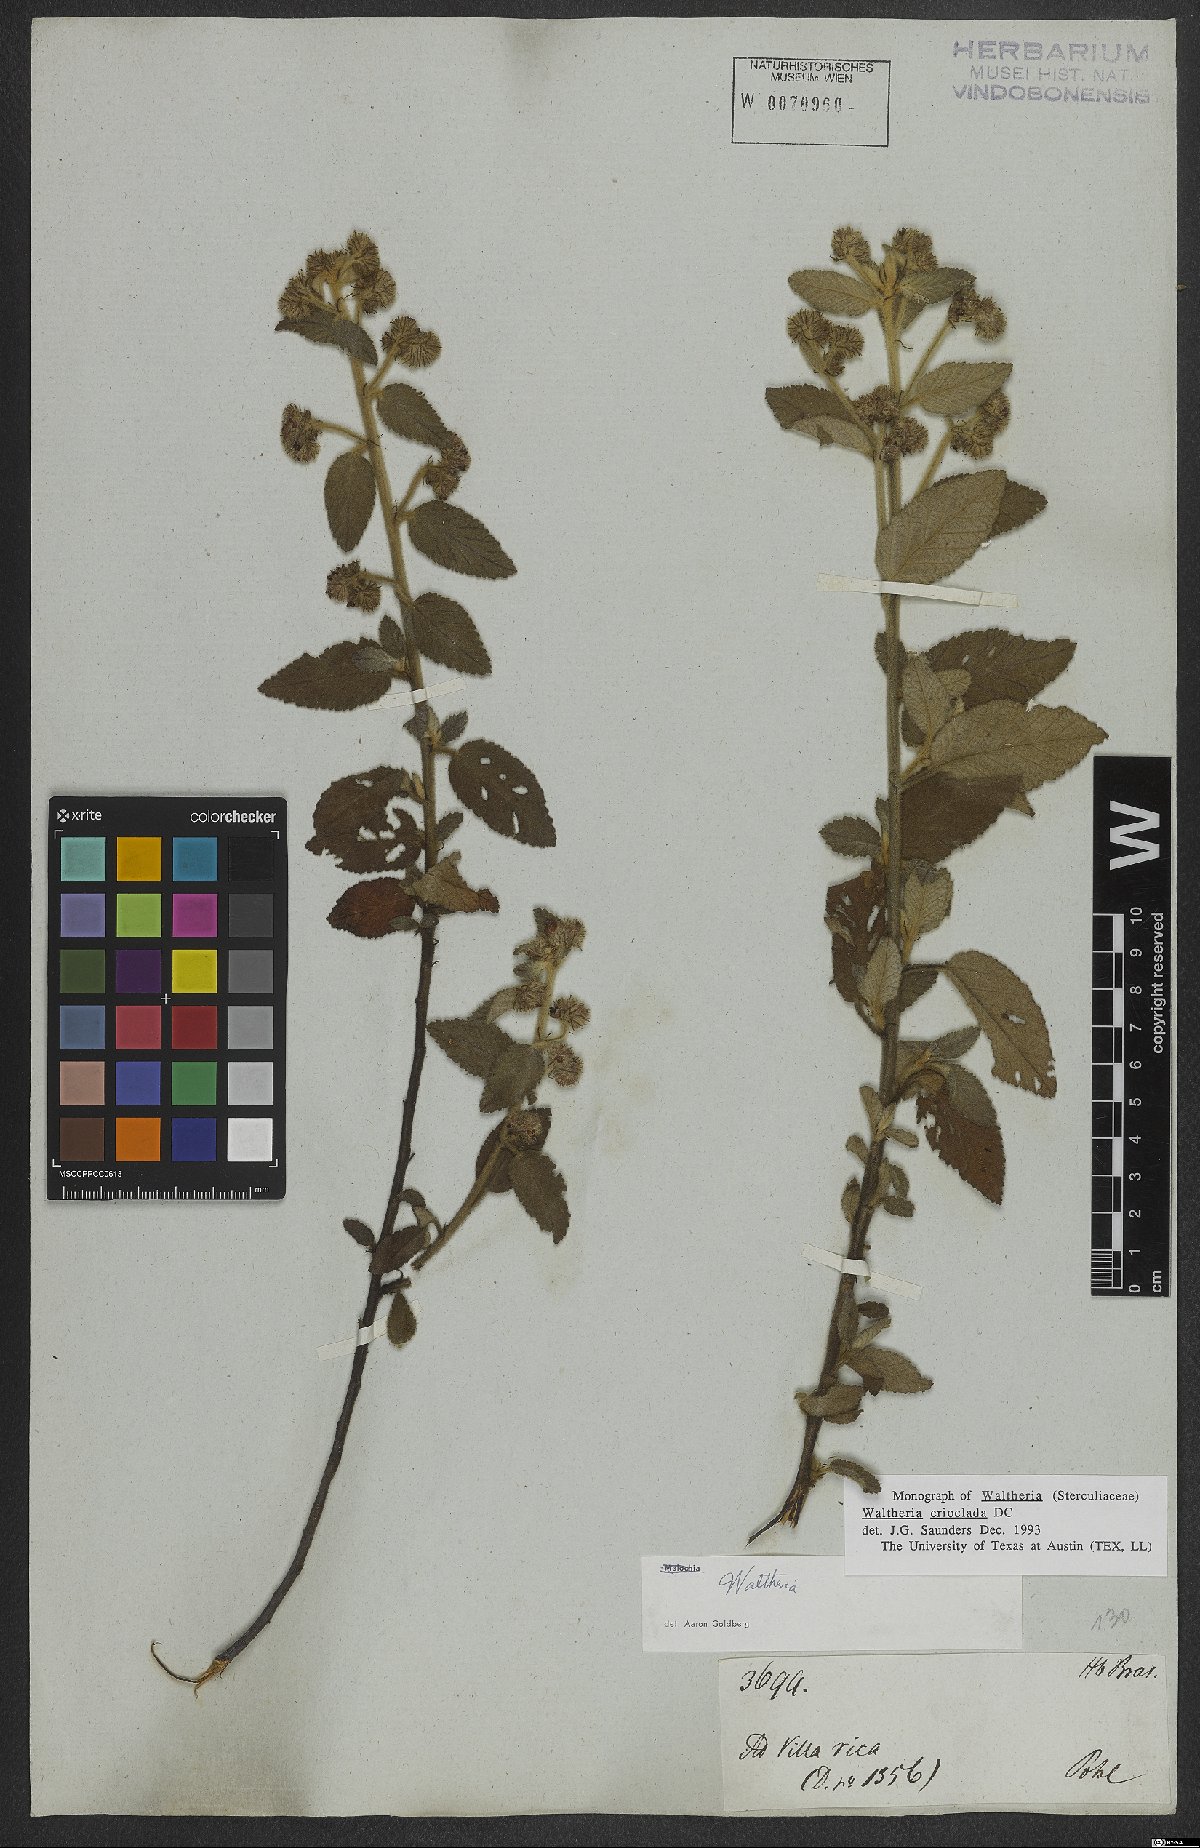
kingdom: Plantae
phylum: Tracheophyta
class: Magnoliopsida
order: Malvales
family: Malvaceae
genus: Waltheria
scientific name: Waltheria indica
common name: Leather-coat
